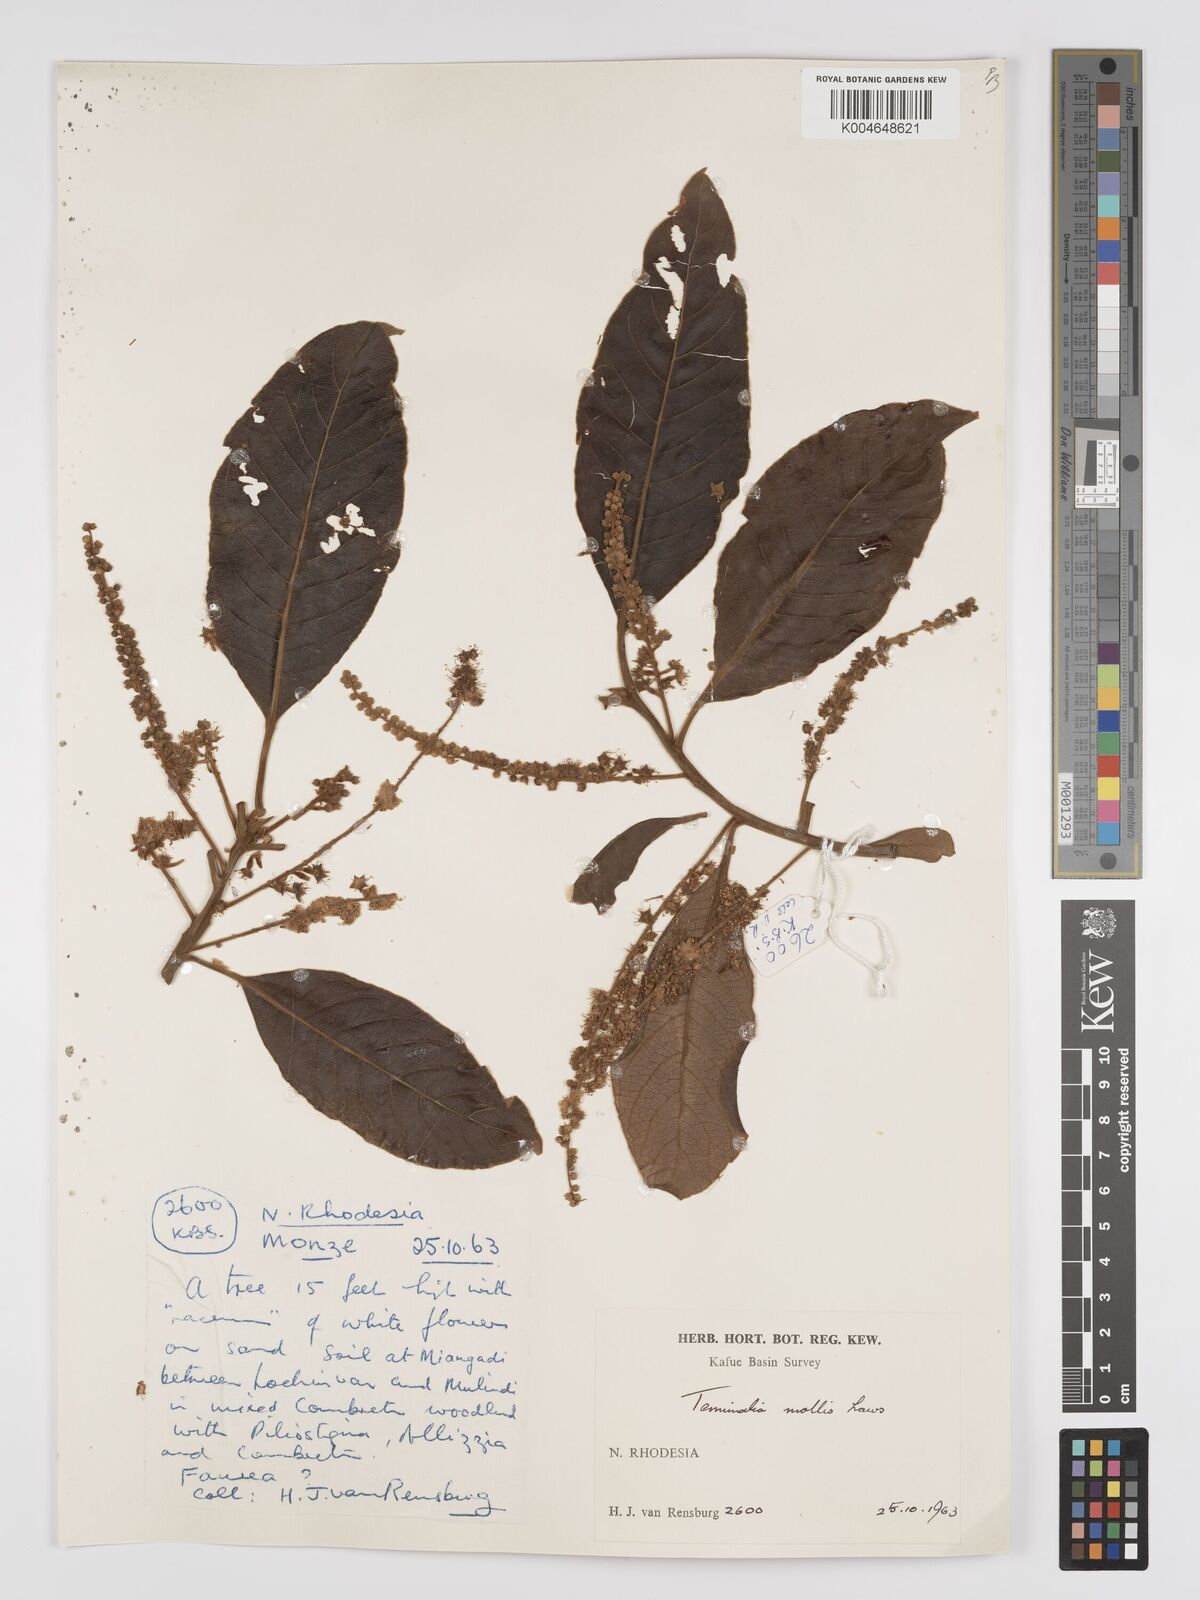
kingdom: Plantae
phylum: Tracheophyta
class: Magnoliopsida
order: Myrtales
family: Combretaceae
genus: Terminalia
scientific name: Terminalia
